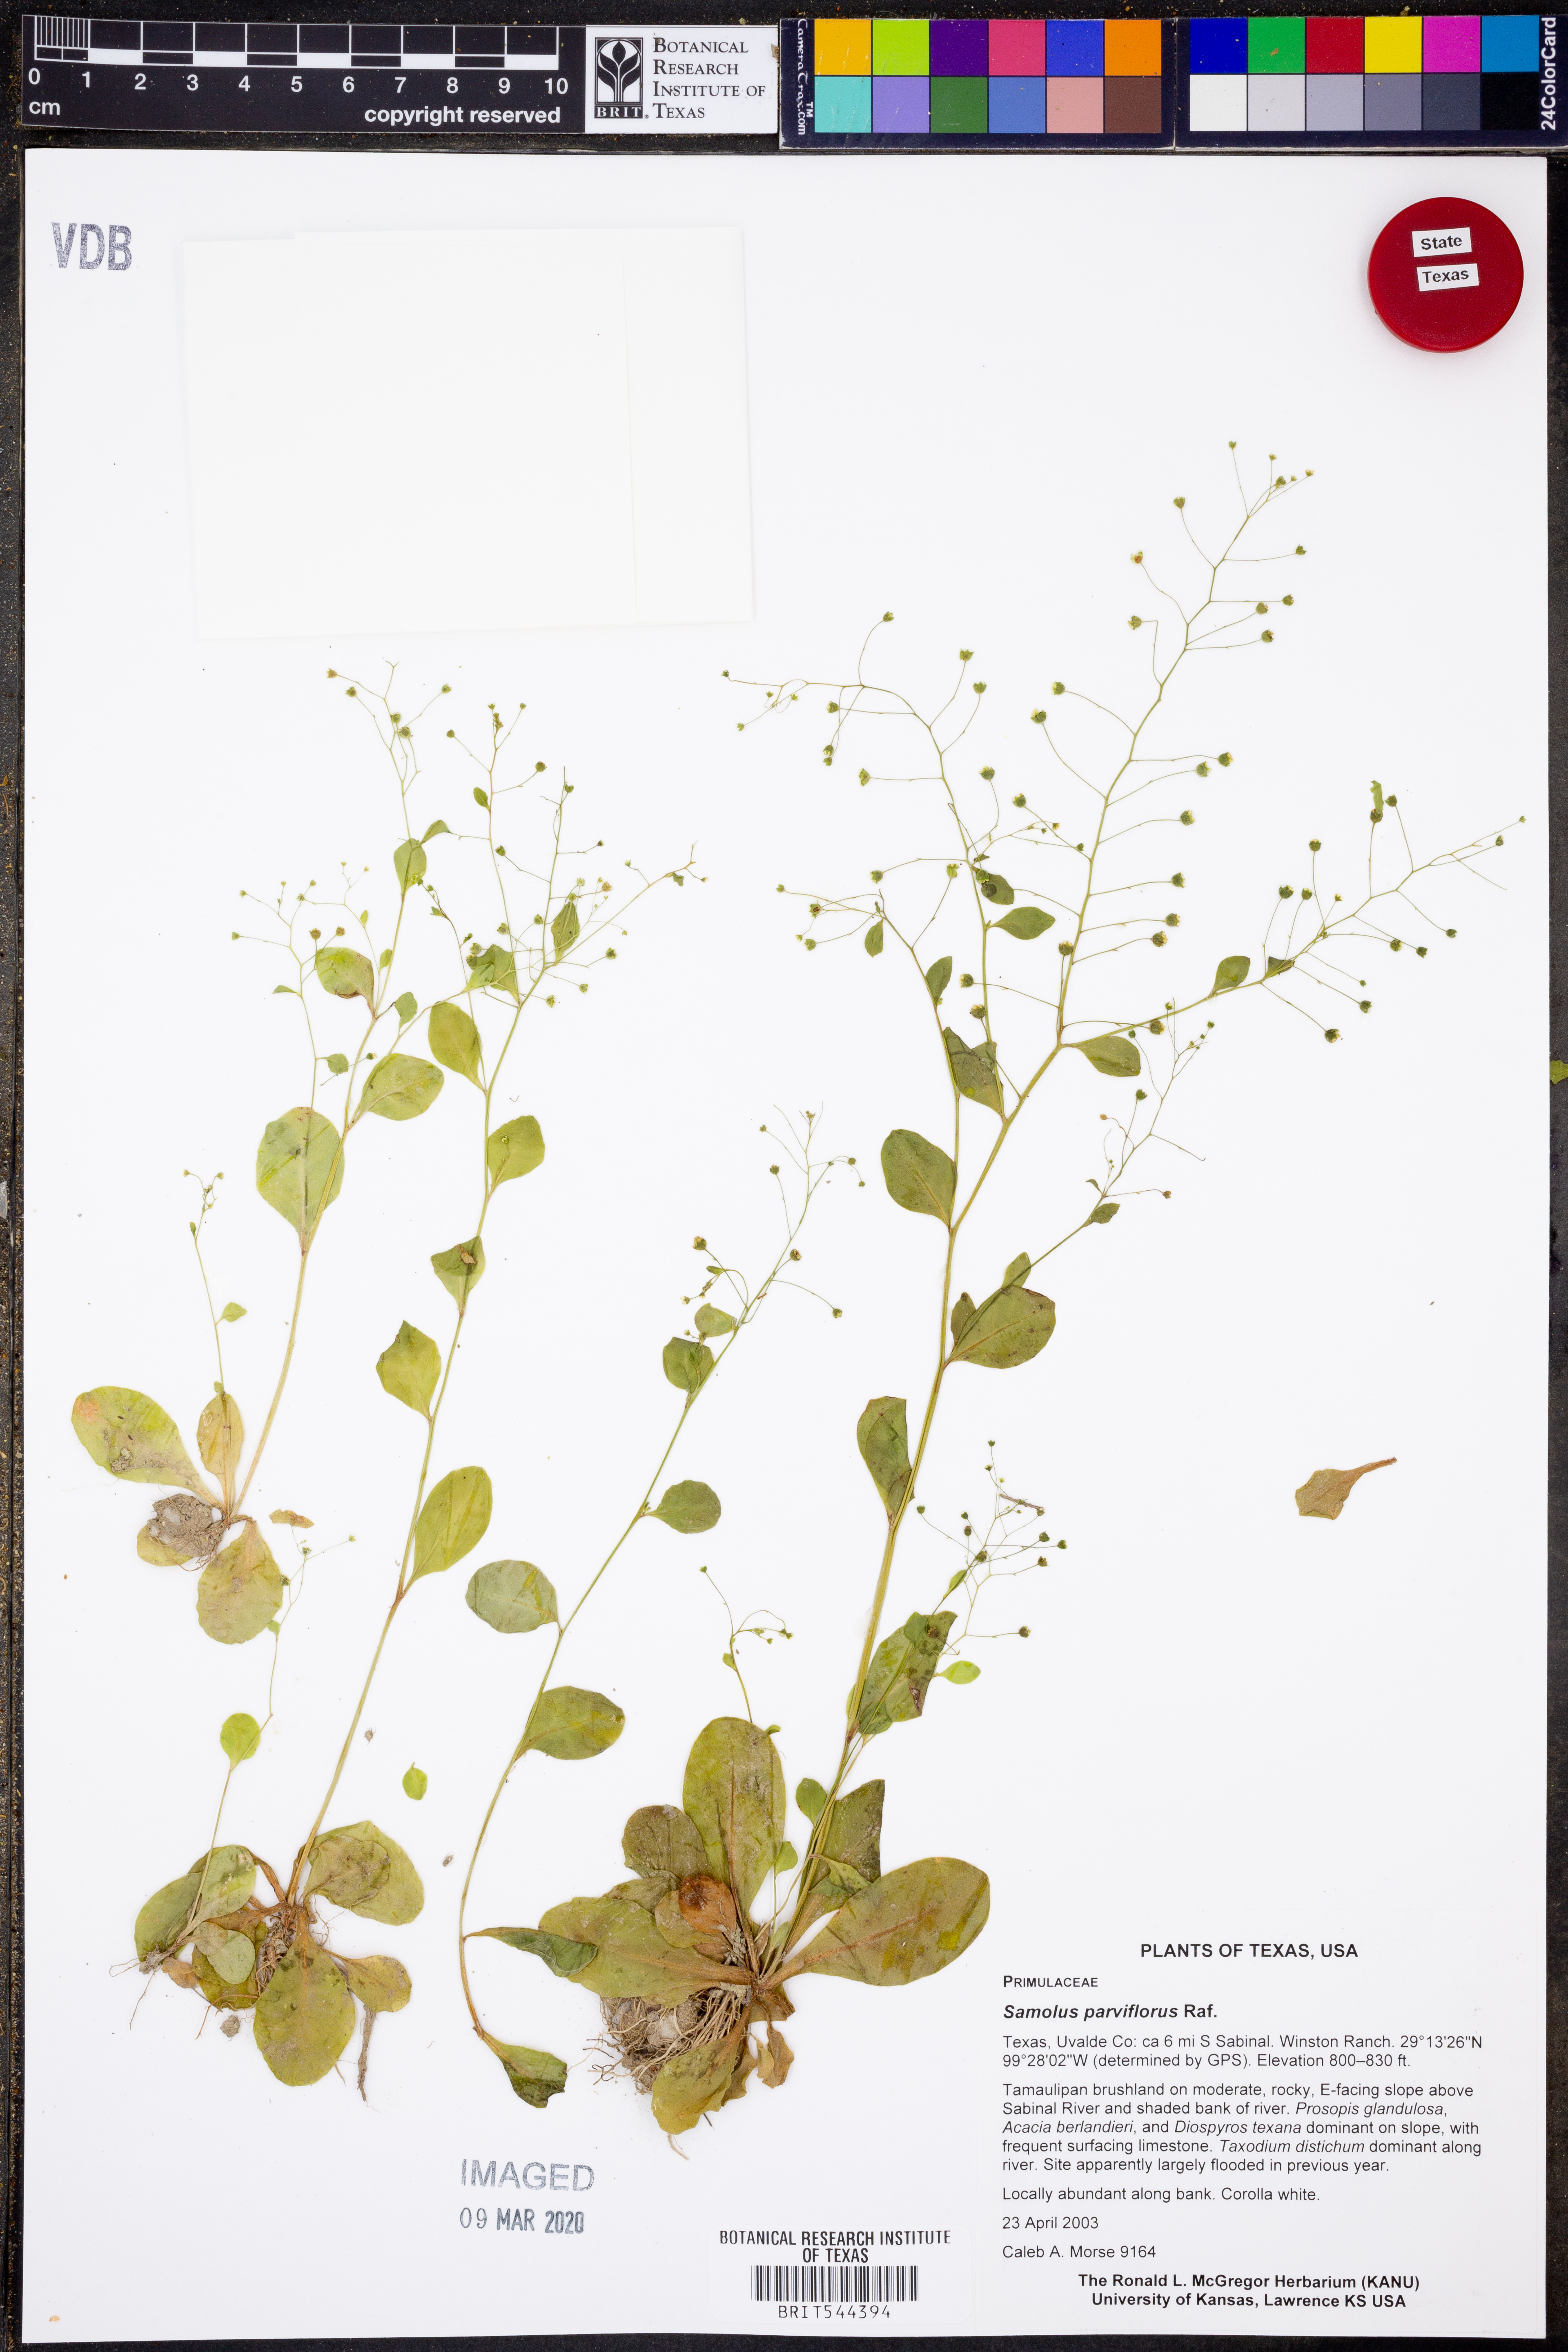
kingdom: Plantae
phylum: Tracheophyta
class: Magnoliopsida
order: Ericales
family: Primulaceae
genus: Samolus
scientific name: Samolus parviflorus
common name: False water pimpernel
